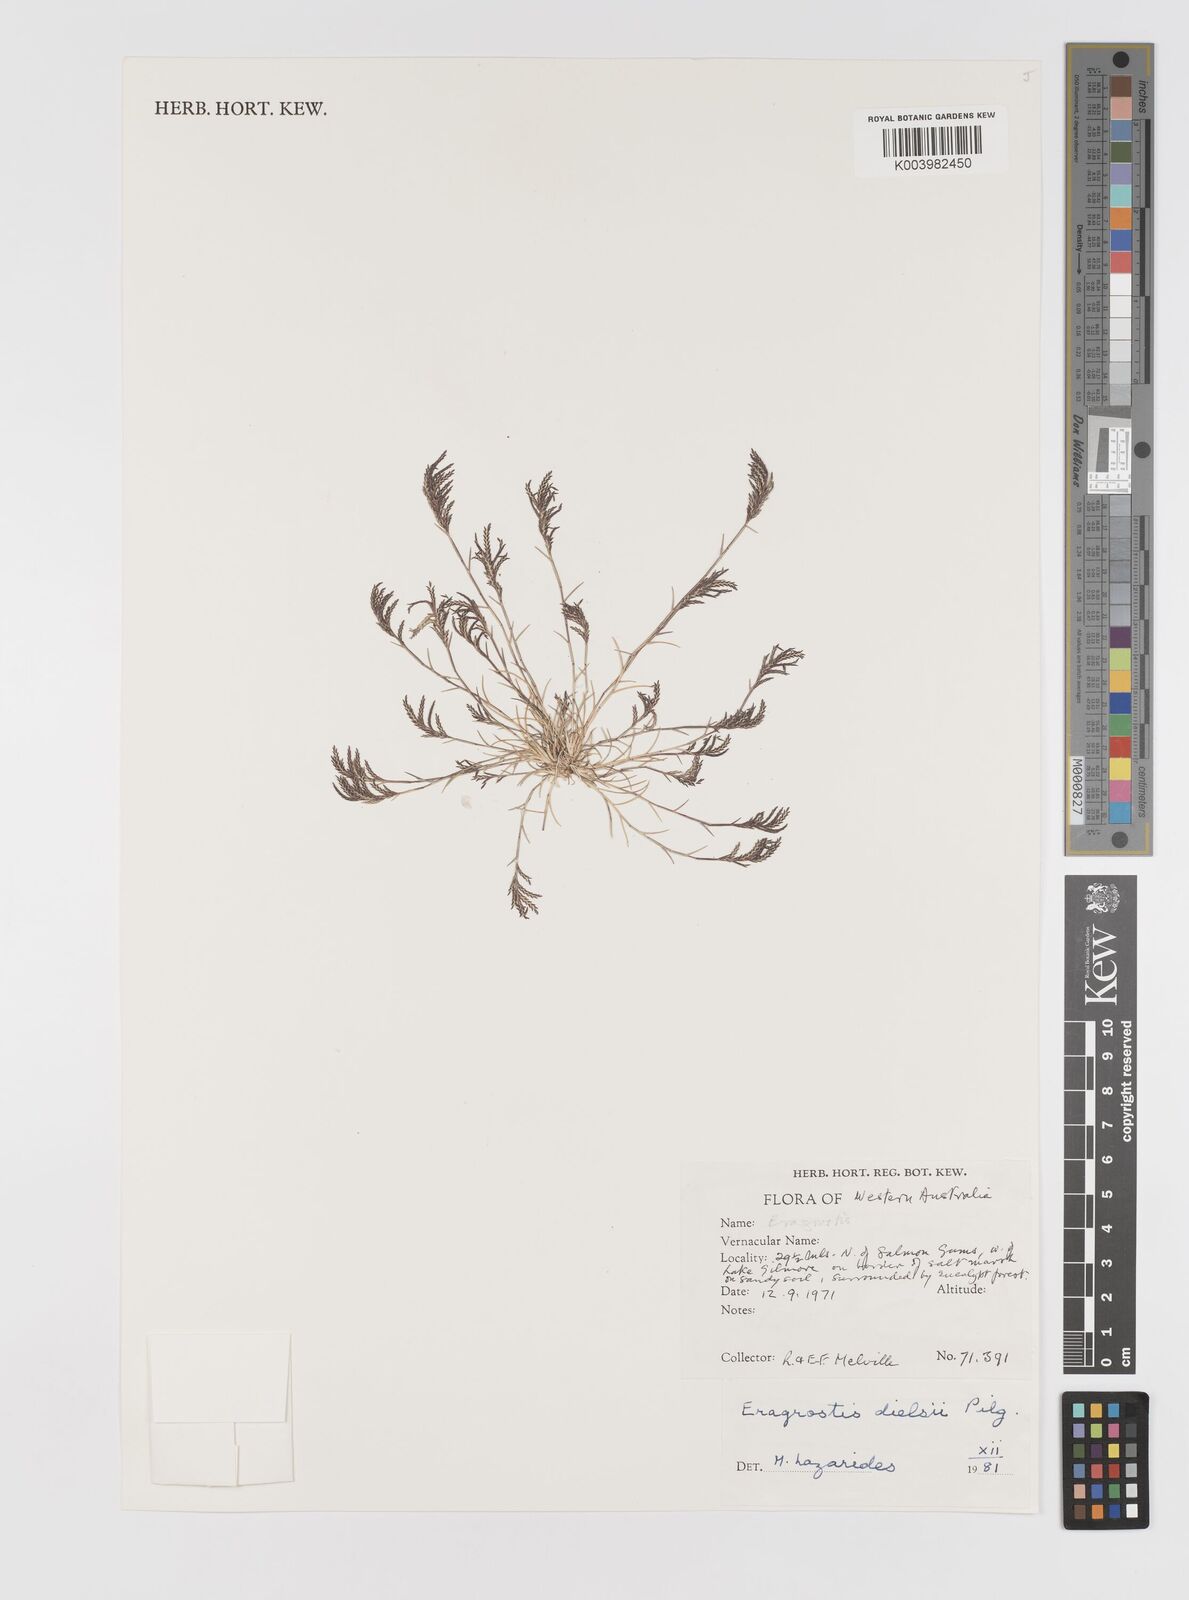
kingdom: Plantae
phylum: Tracheophyta
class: Liliopsida
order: Poales
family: Poaceae
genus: Eragrostis
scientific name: Eragrostis dielsii
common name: Lovegrass
